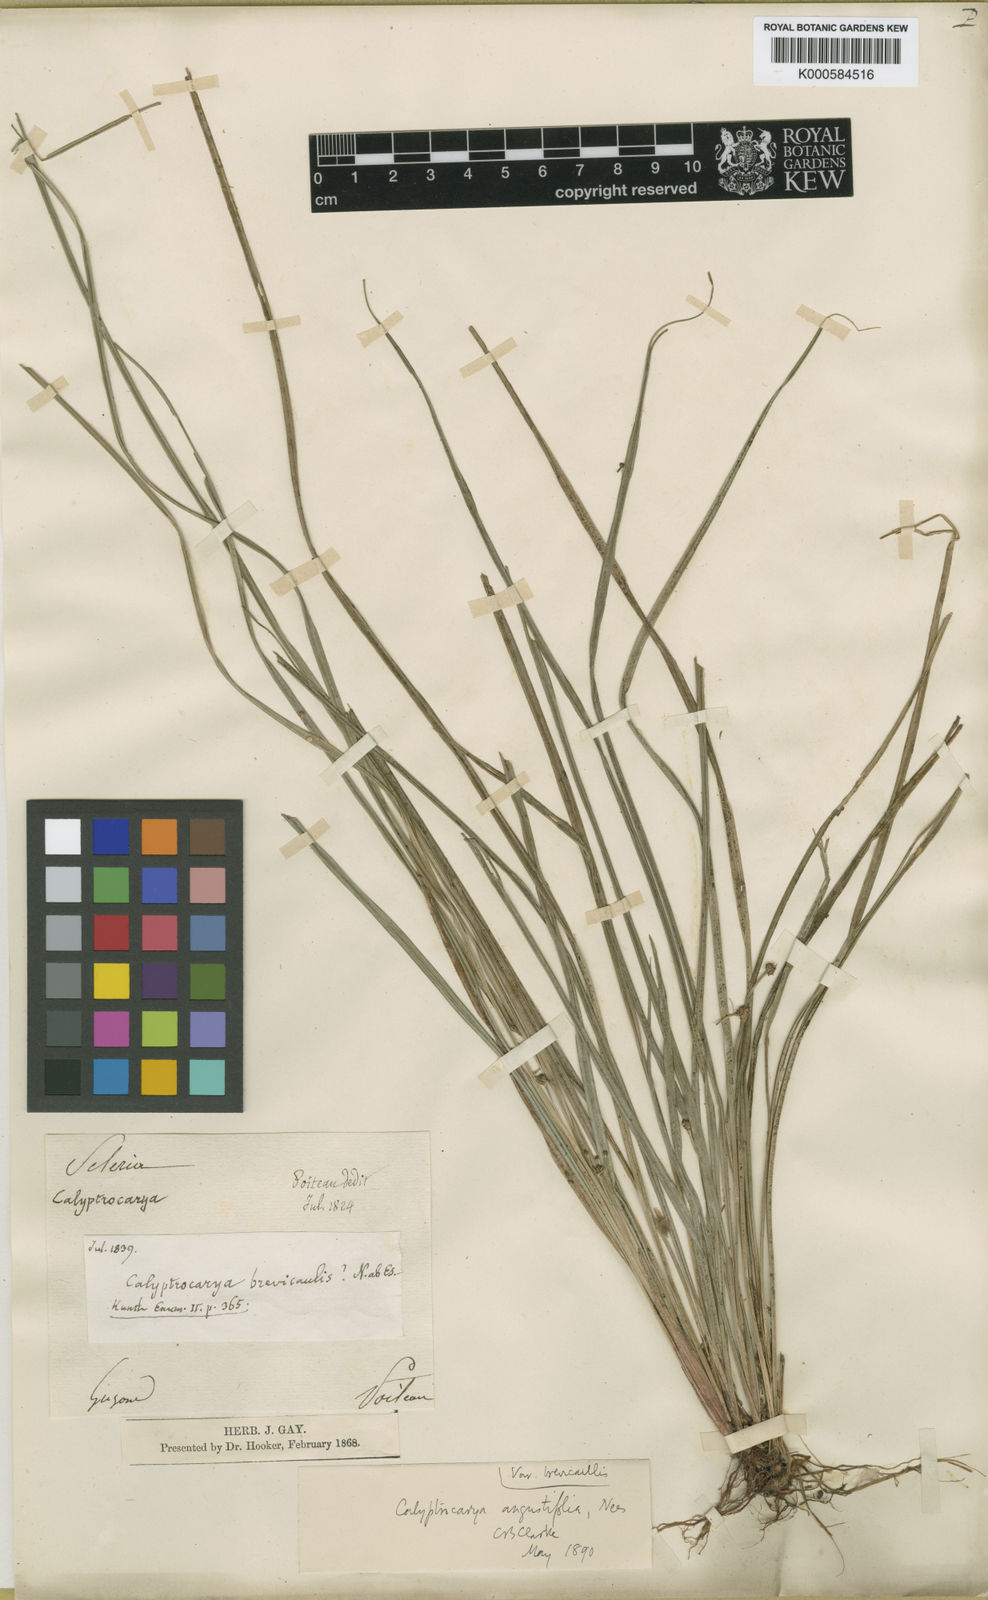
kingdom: Plantae
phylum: Tracheophyta
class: Liliopsida
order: Poales
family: Cyperaceae
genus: Calyptrocarya
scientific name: Calyptrocarya
